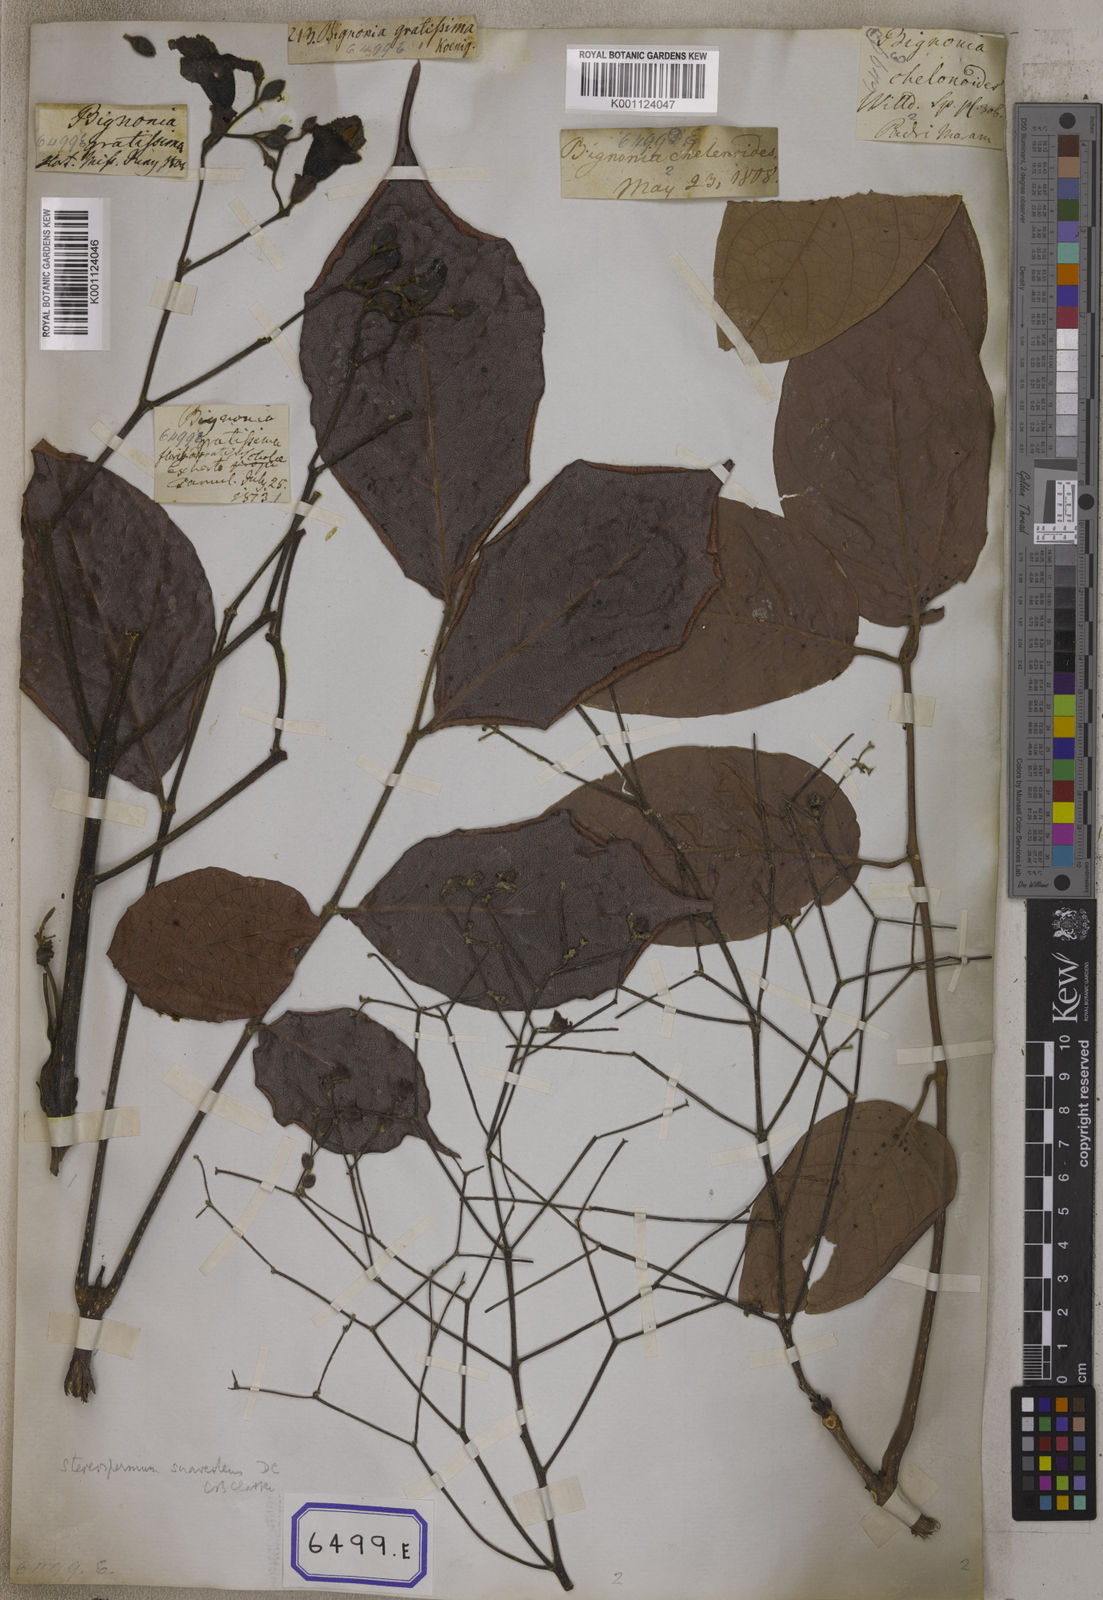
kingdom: Plantae
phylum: Tracheophyta
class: Magnoliopsida
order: Lamiales
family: Bignoniaceae
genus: Stereospermum
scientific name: Stereospermum chelonoides
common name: Fragrant padritree
